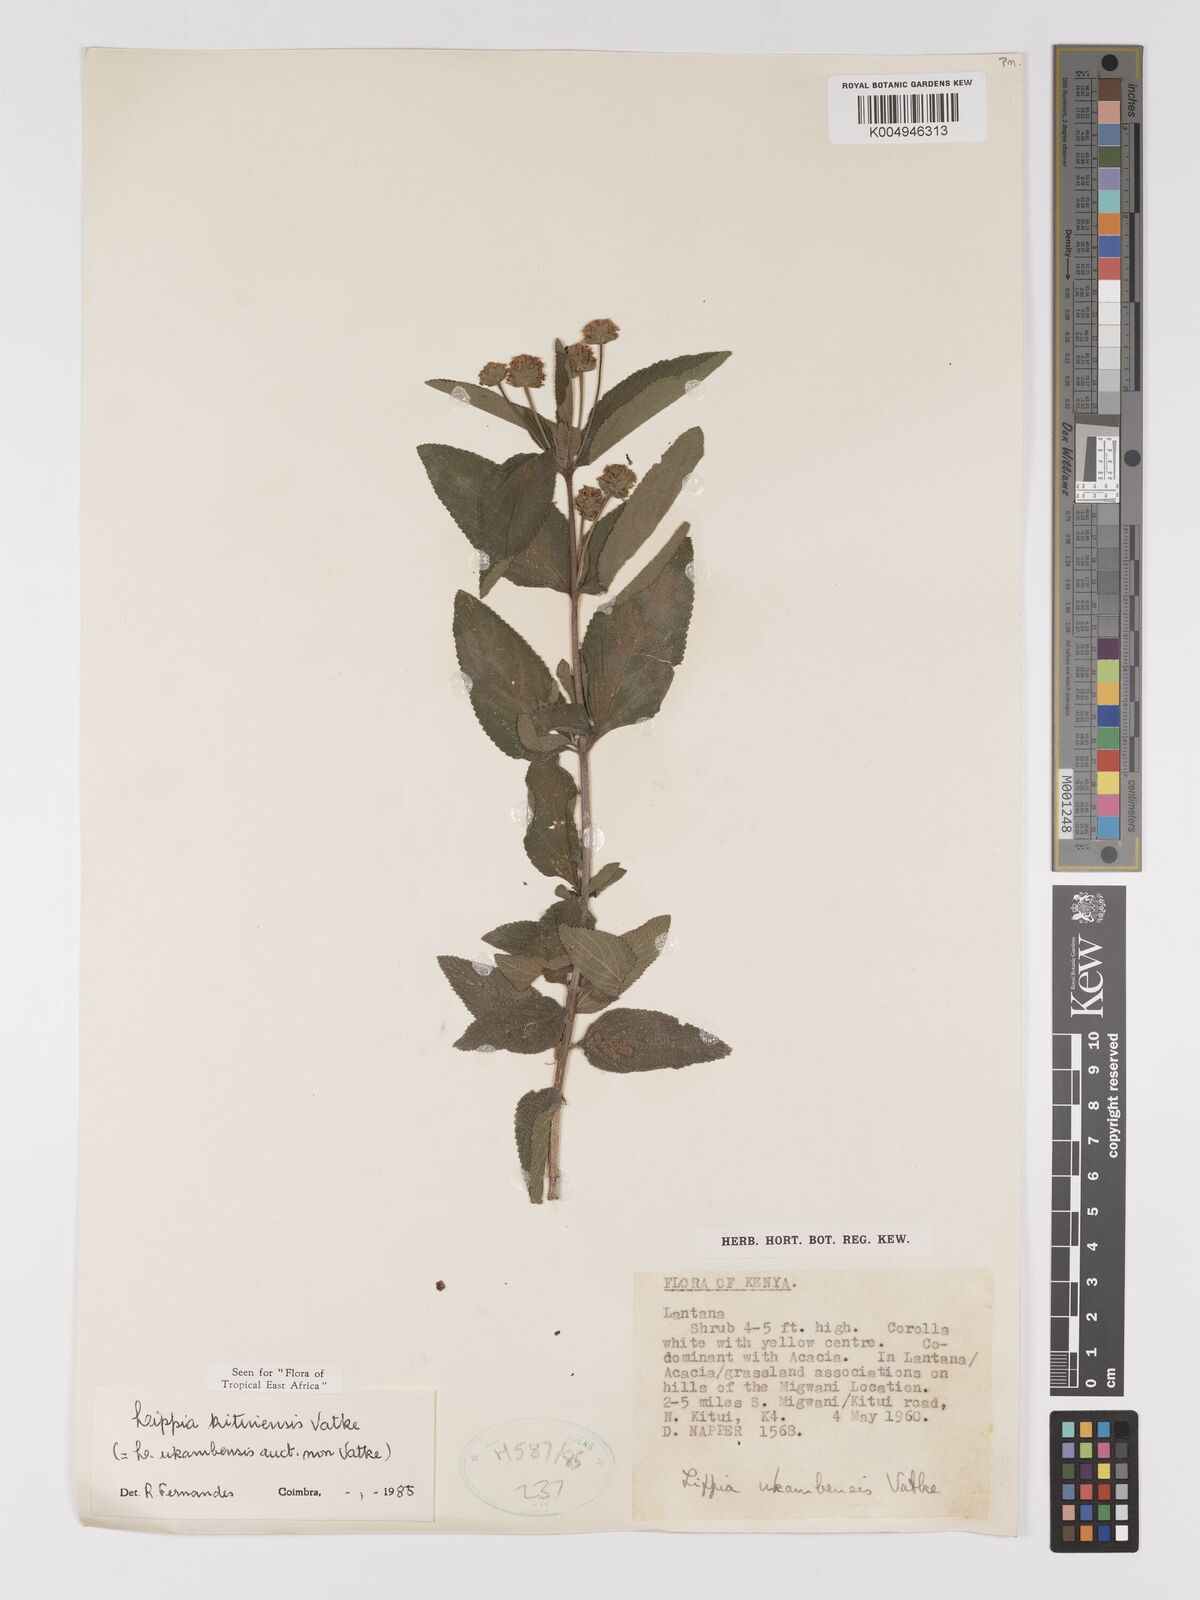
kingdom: Plantae
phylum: Tracheophyta
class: Magnoliopsida
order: Lamiales
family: Verbenaceae
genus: Lippia
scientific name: Lippia kituiensis
